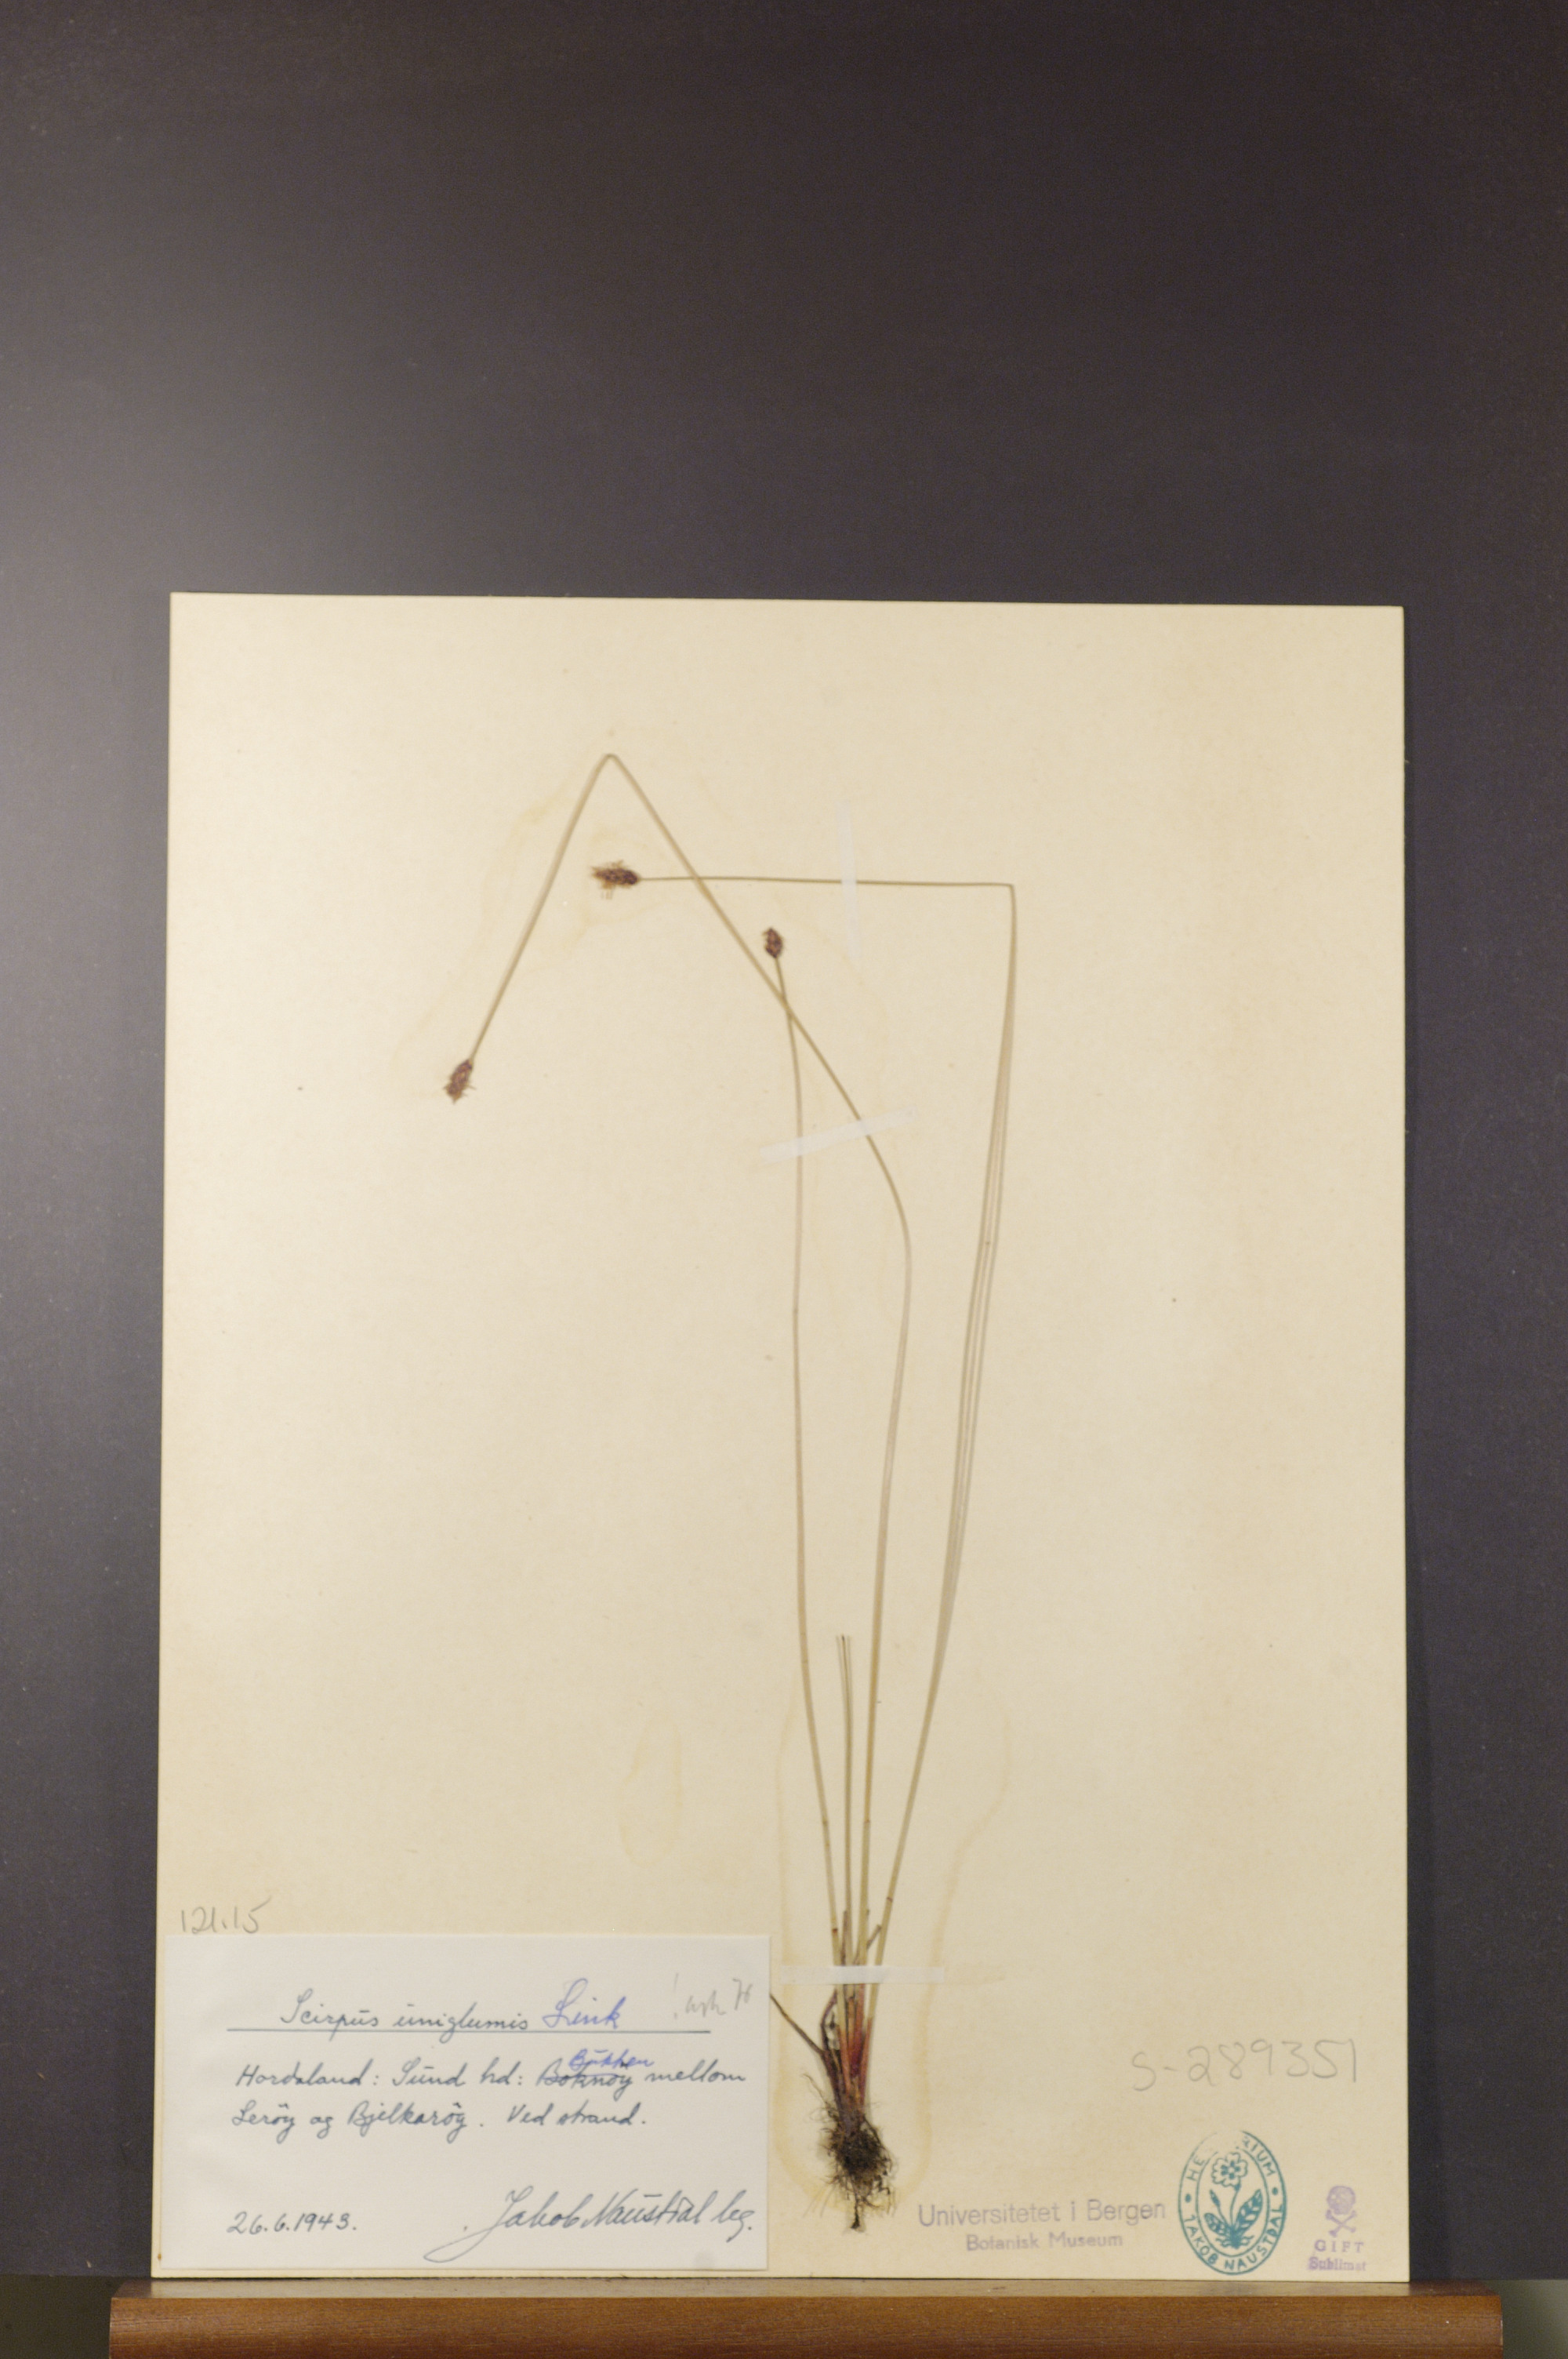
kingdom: Plantae
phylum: Tracheophyta
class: Liliopsida
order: Poales
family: Cyperaceae
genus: Eleocharis
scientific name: Eleocharis uniglumis
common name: Slender spike-rush
